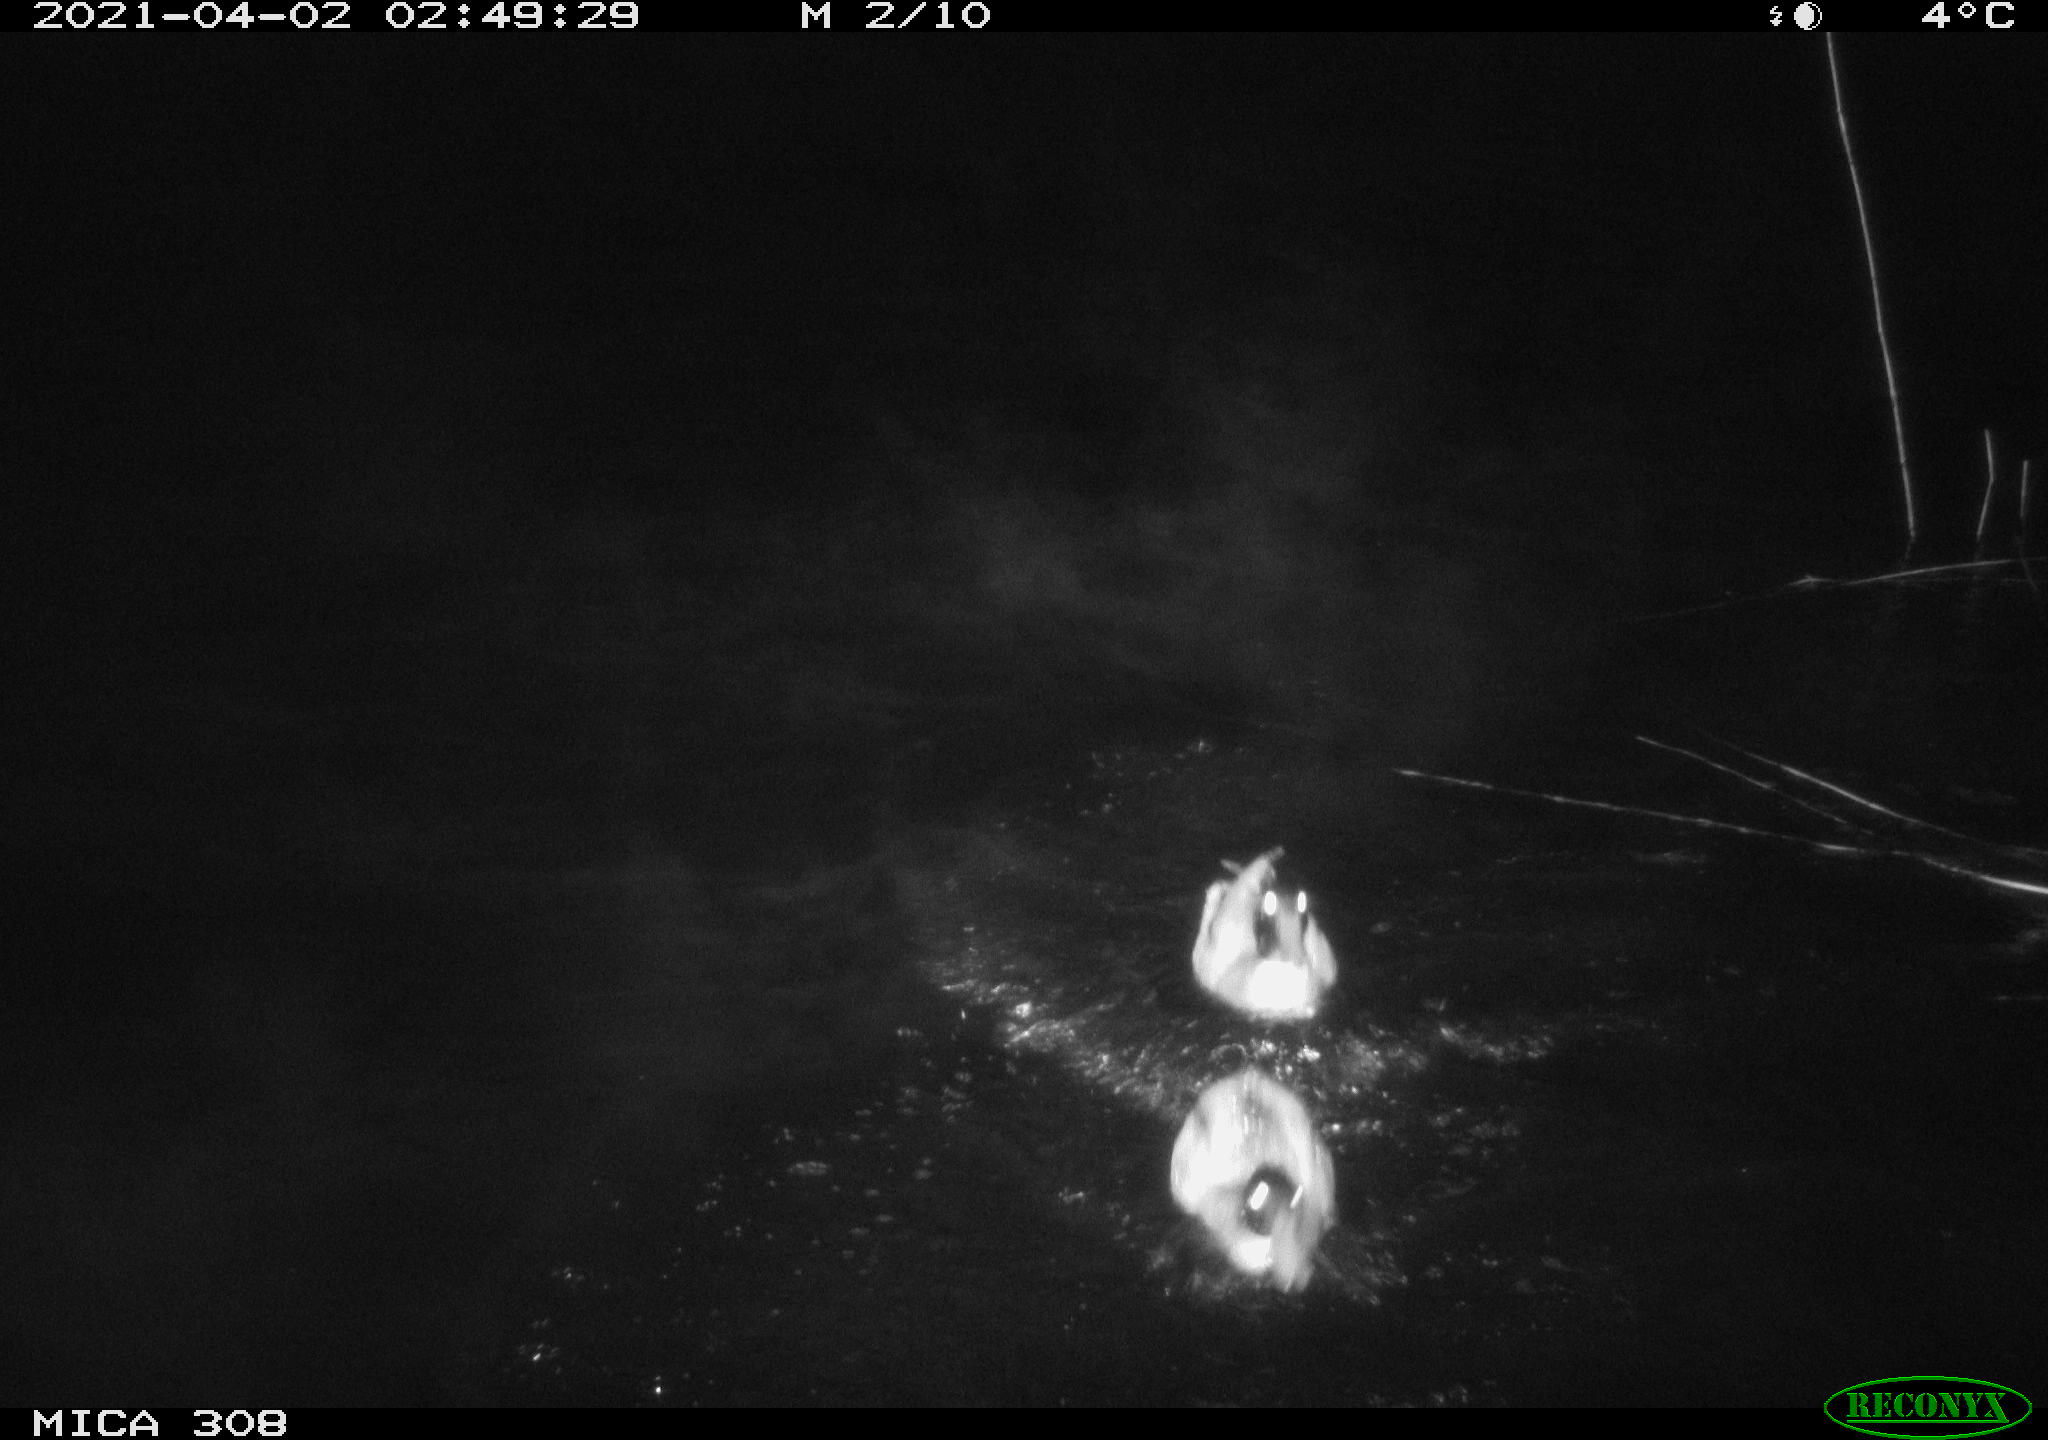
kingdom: Animalia
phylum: Chordata
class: Aves
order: Anseriformes
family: Anatidae
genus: Anas
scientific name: Anas platyrhynchos
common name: Mallard
